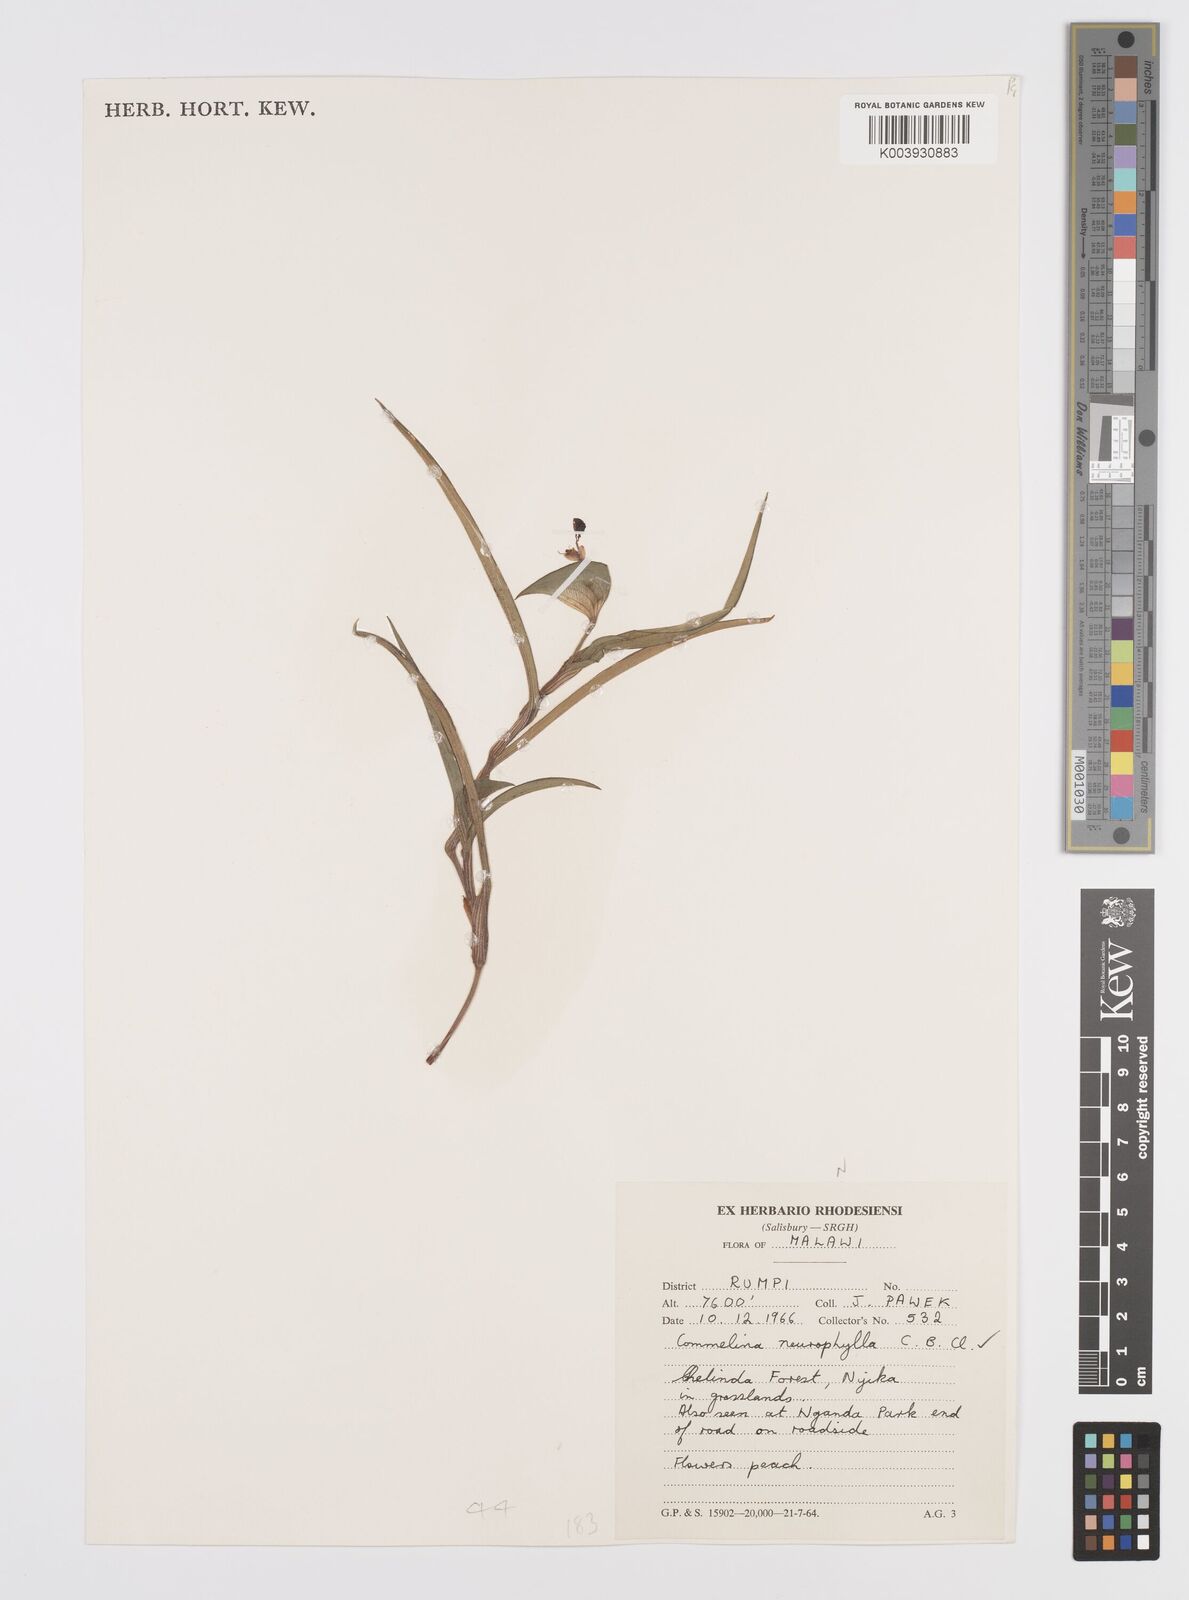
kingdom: Plantae
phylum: Tracheophyta
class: Liliopsida
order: Commelinales
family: Commelinaceae
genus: Commelina
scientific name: Commelina neurophylla
